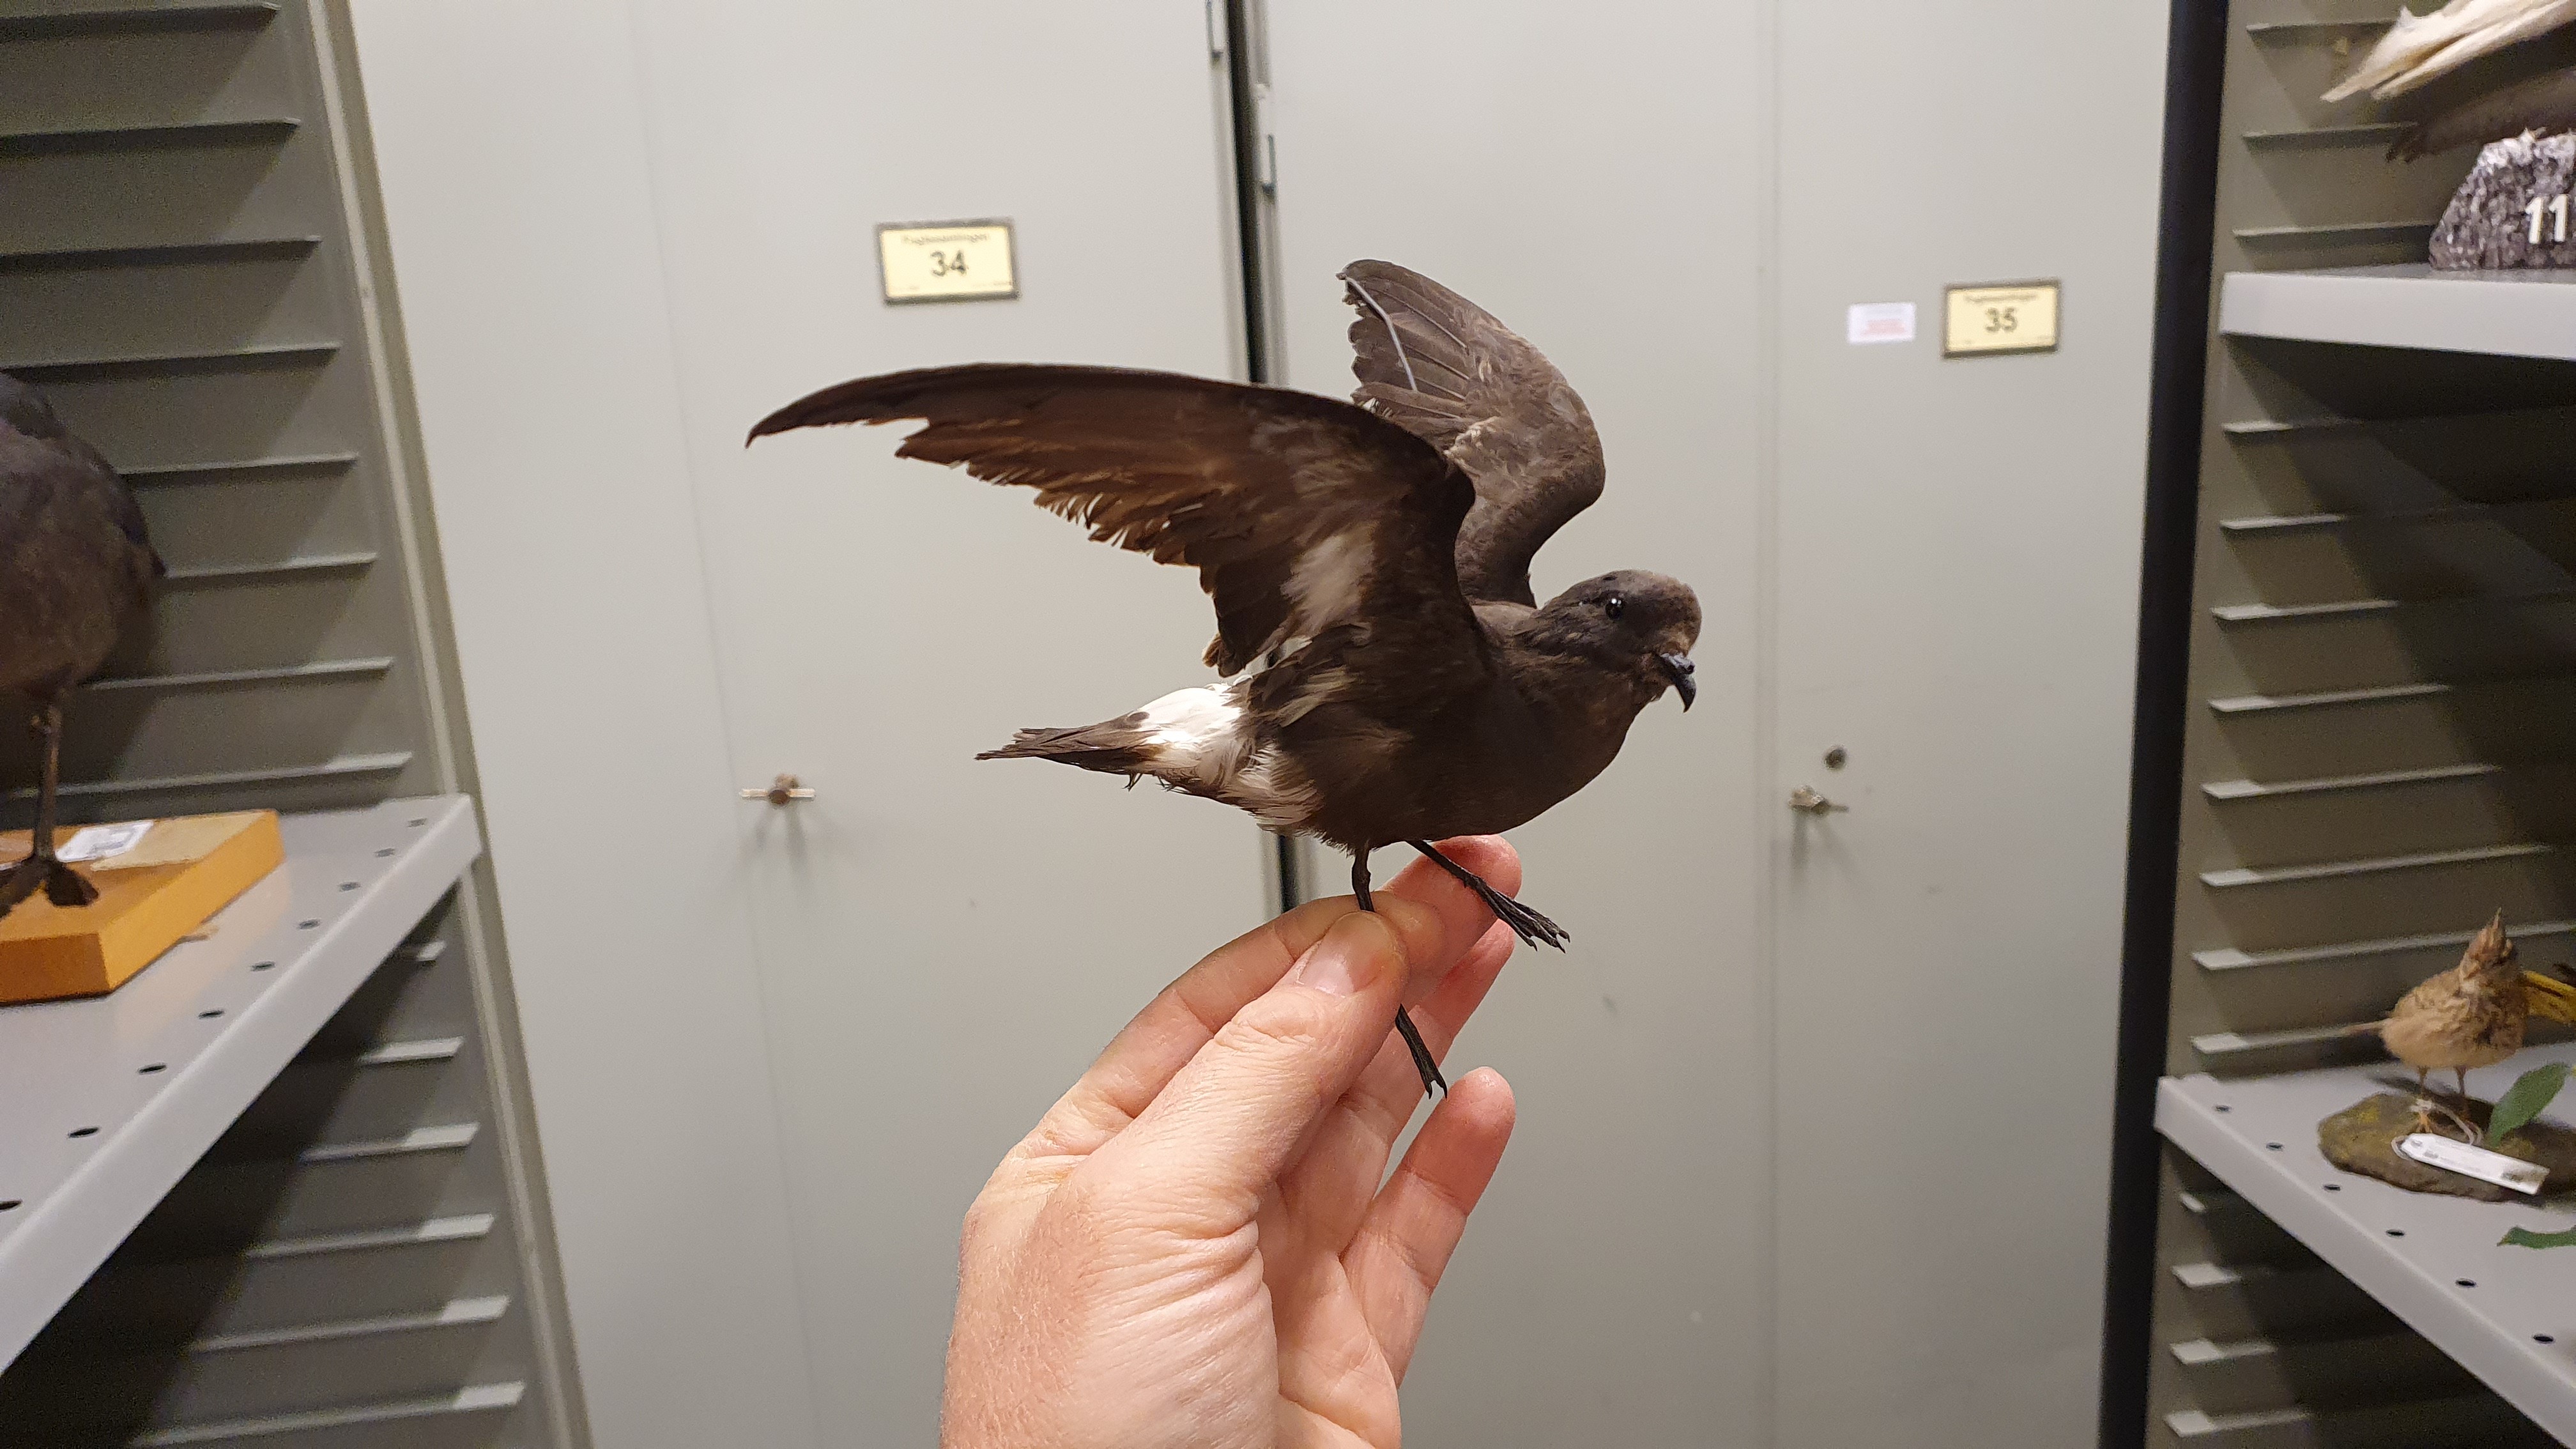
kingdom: Animalia
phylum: Chordata
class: Aves
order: Procellariiformes
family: Hydrobatidae
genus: Hydrobates
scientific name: Hydrobates pelagicus
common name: European storm-petrel
